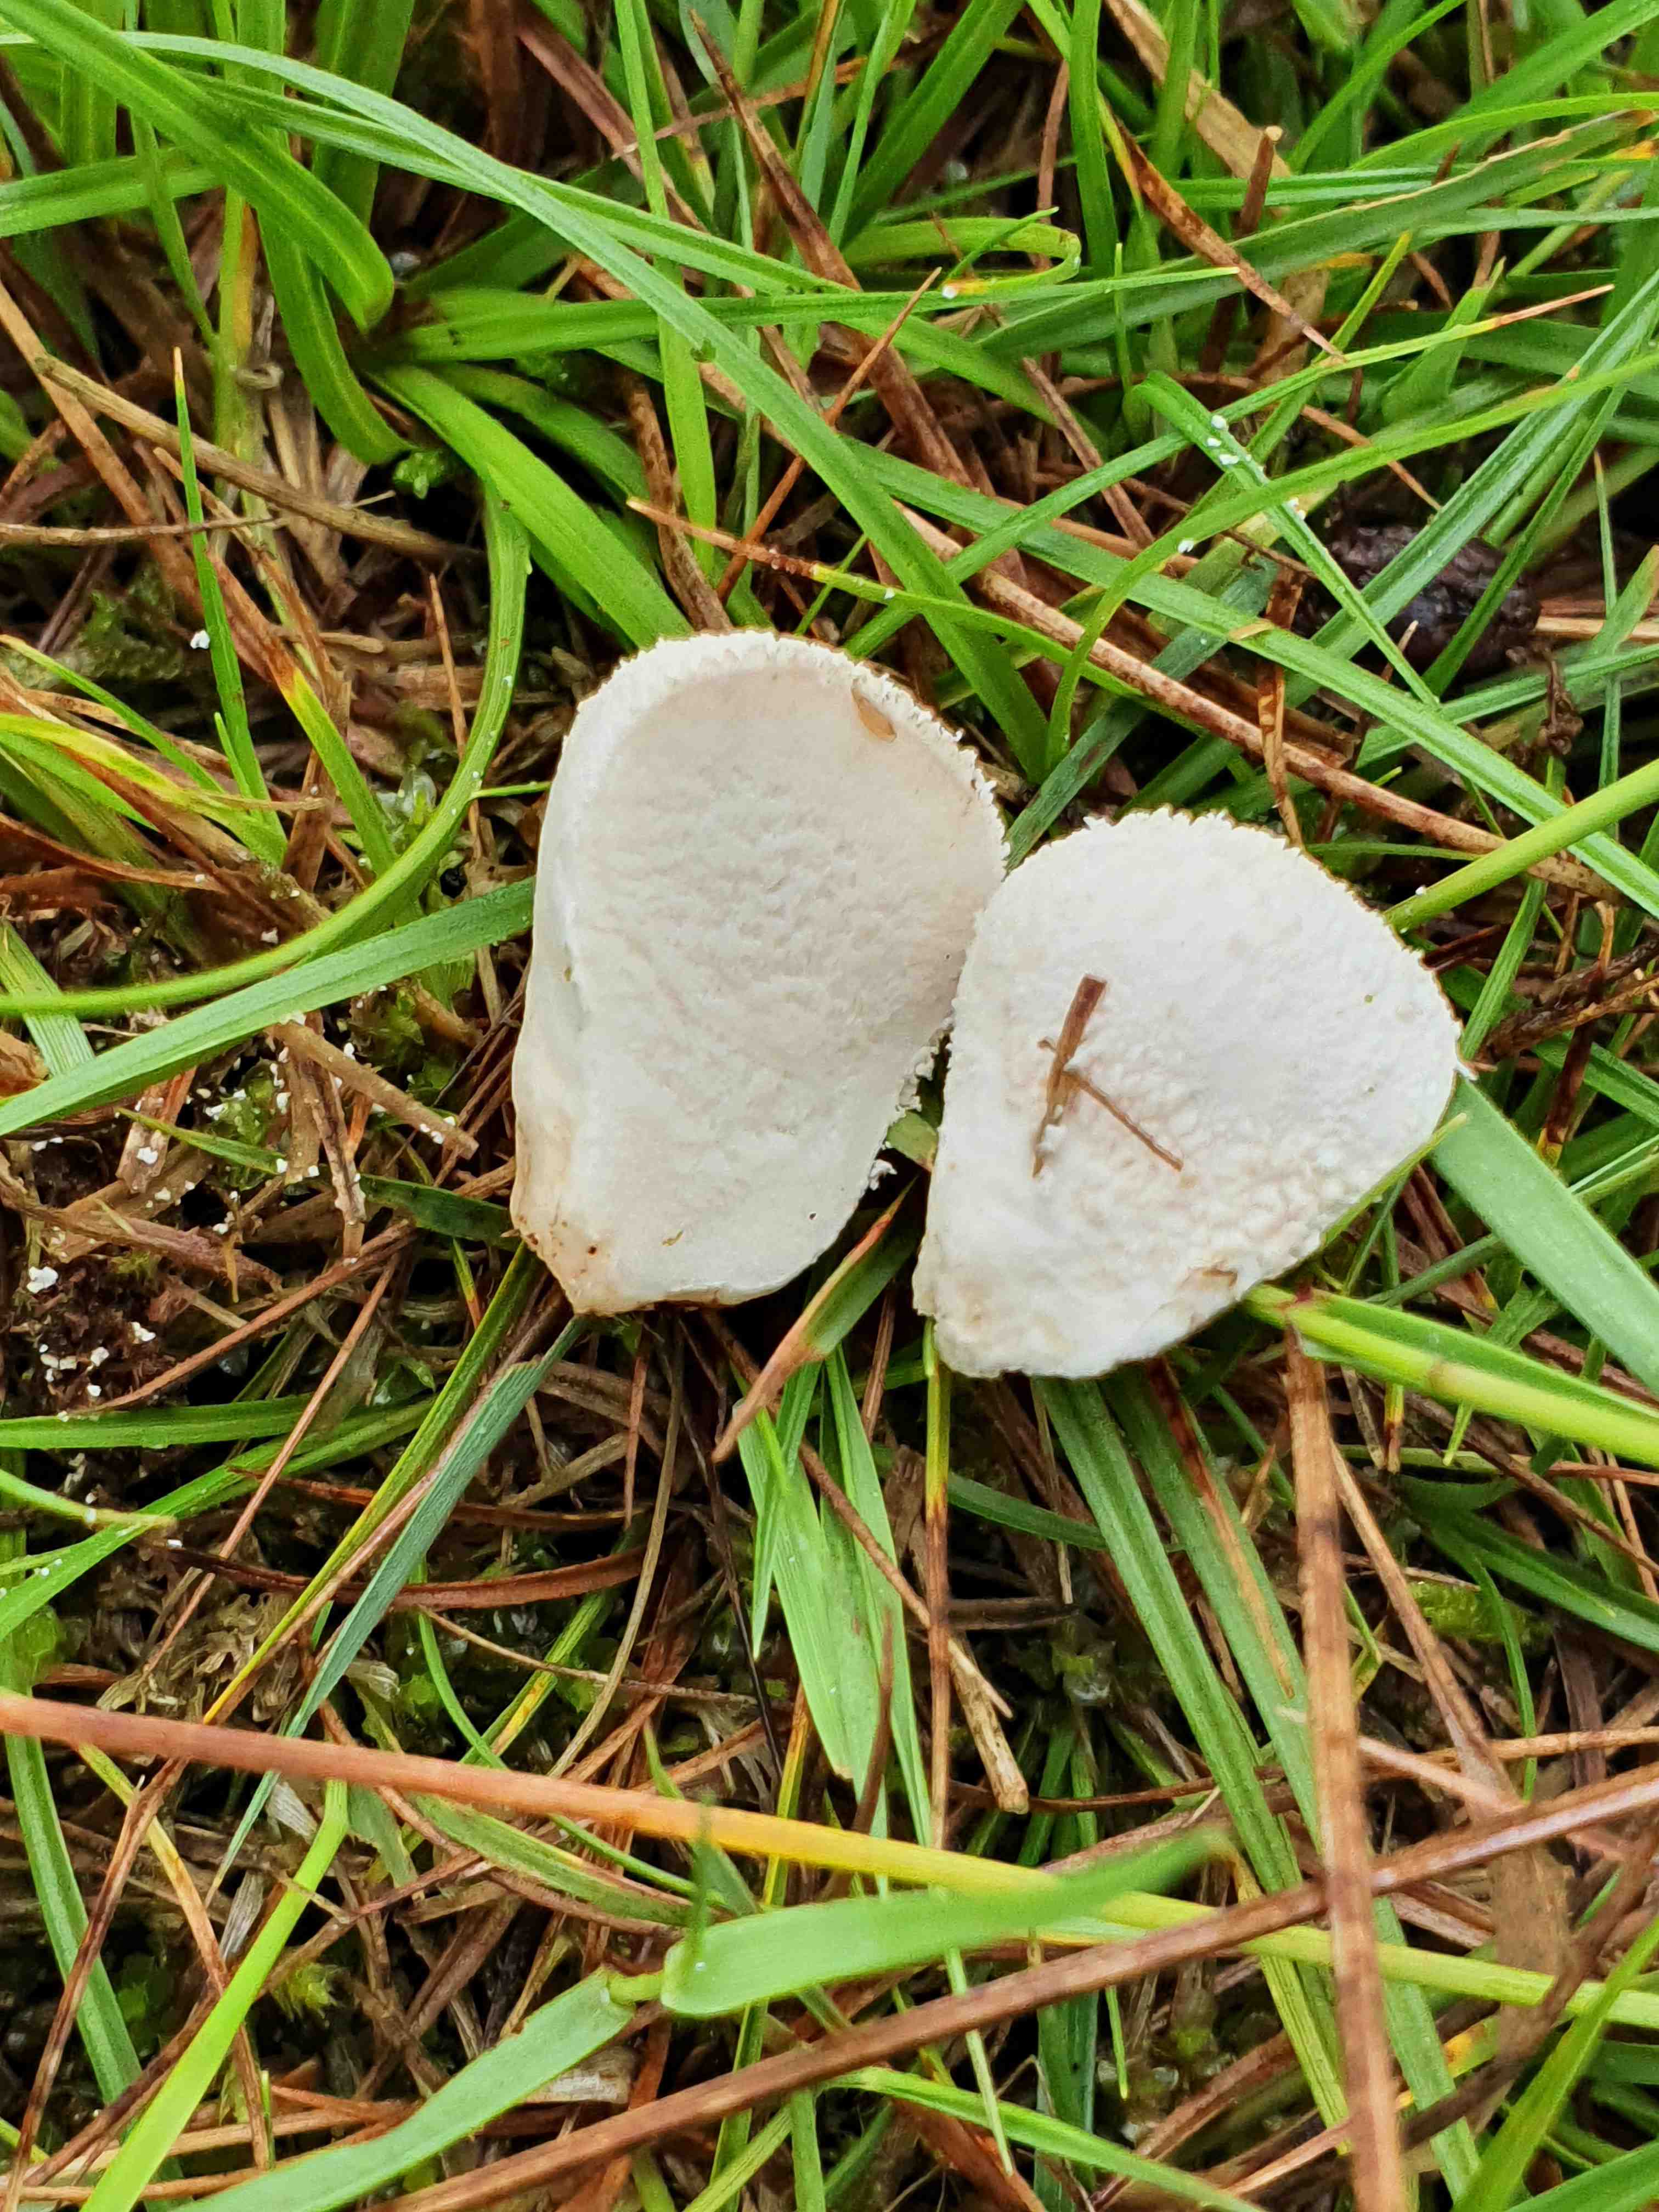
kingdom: Fungi
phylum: Basidiomycota
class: Agaricomycetes
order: Agaricales
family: Lycoperdaceae
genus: Lycoperdon
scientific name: Lycoperdon pratense
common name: flad støvbold
